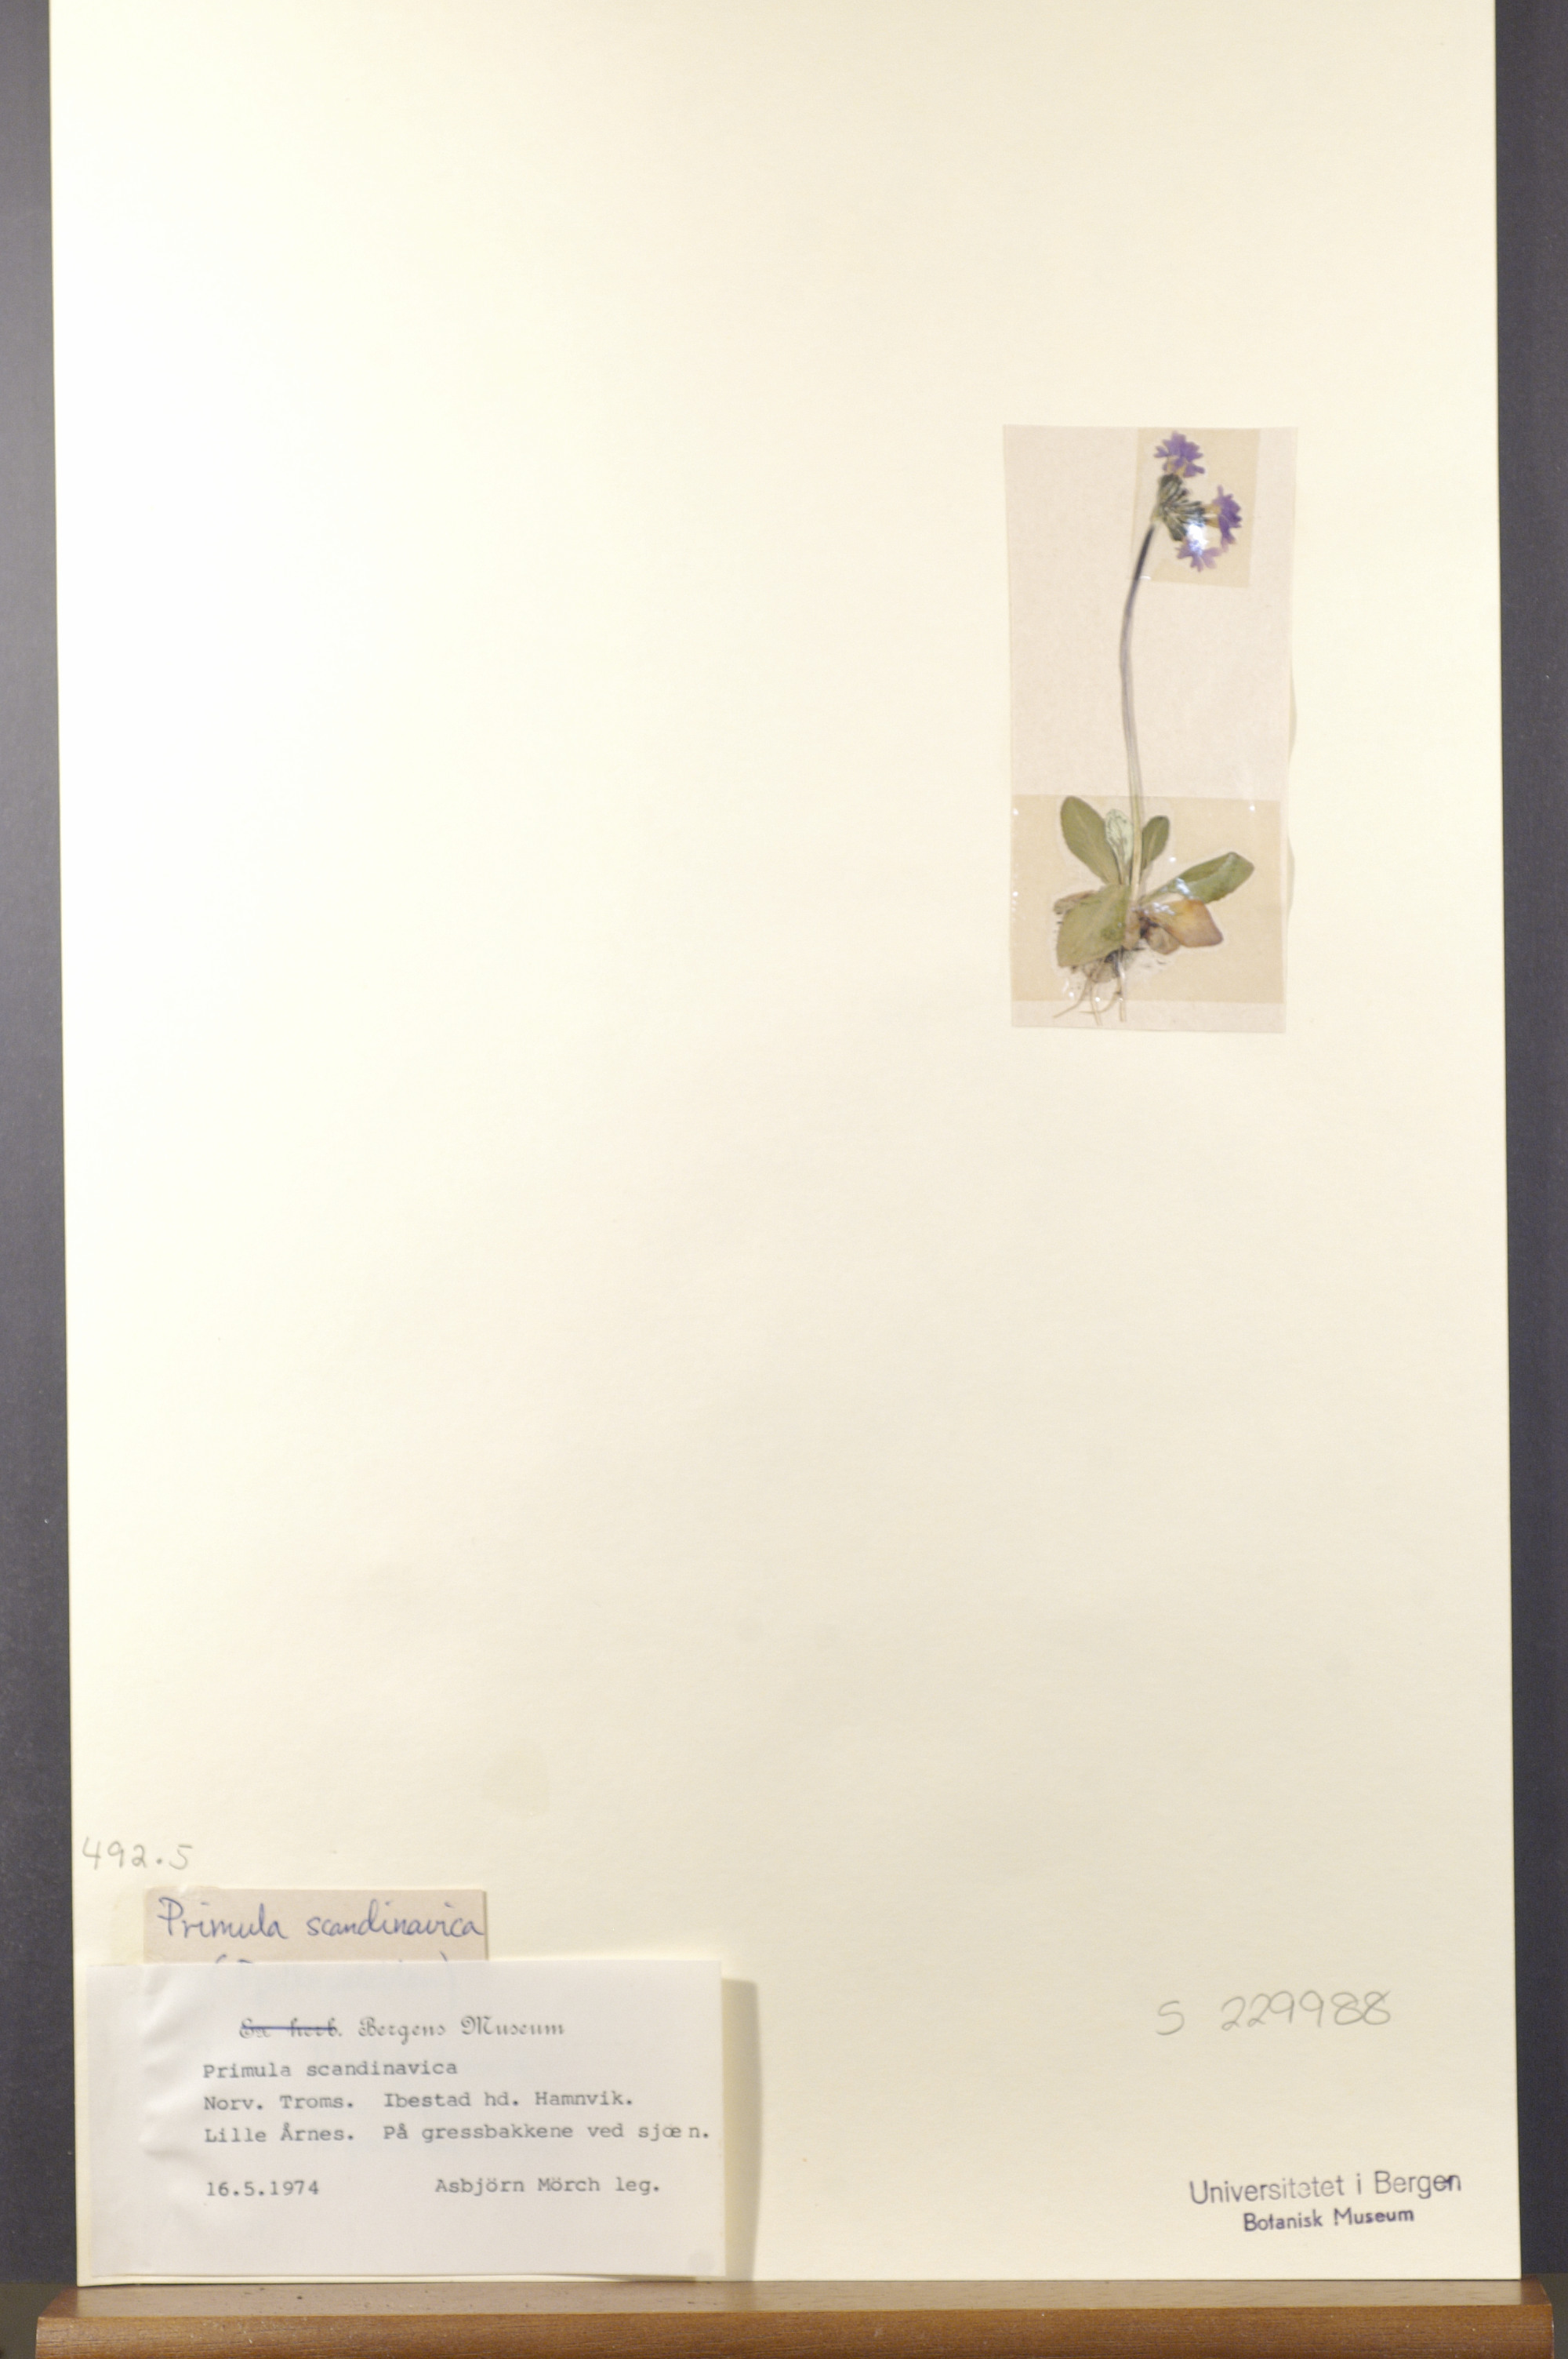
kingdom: Plantae
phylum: Tracheophyta
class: Magnoliopsida
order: Ericales
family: Primulaceae
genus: Primula
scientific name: Primula scandinavica
